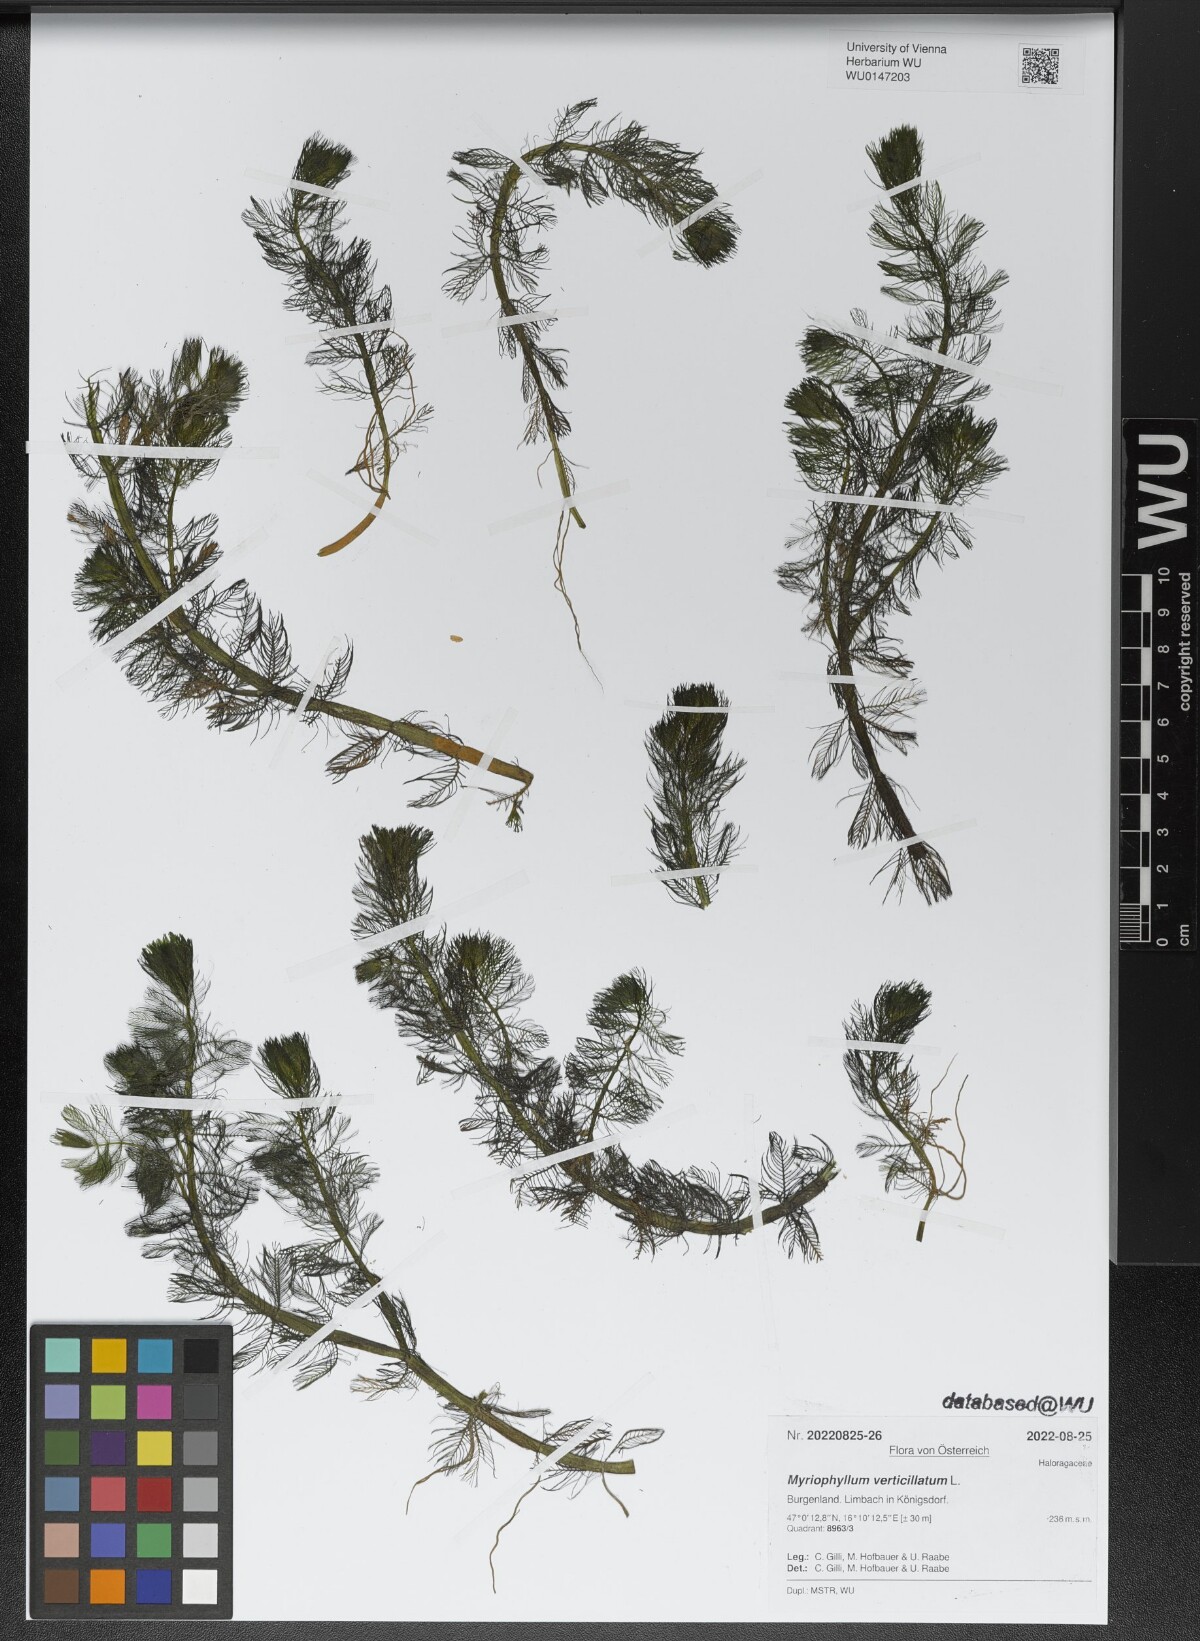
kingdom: Plantae
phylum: Tracheophyta
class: Magnoliopsida
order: Saxifragales
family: Haloragaceae
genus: Myriophyllum
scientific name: Myriophyllum verticillatum
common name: Whorled water-milfoil
